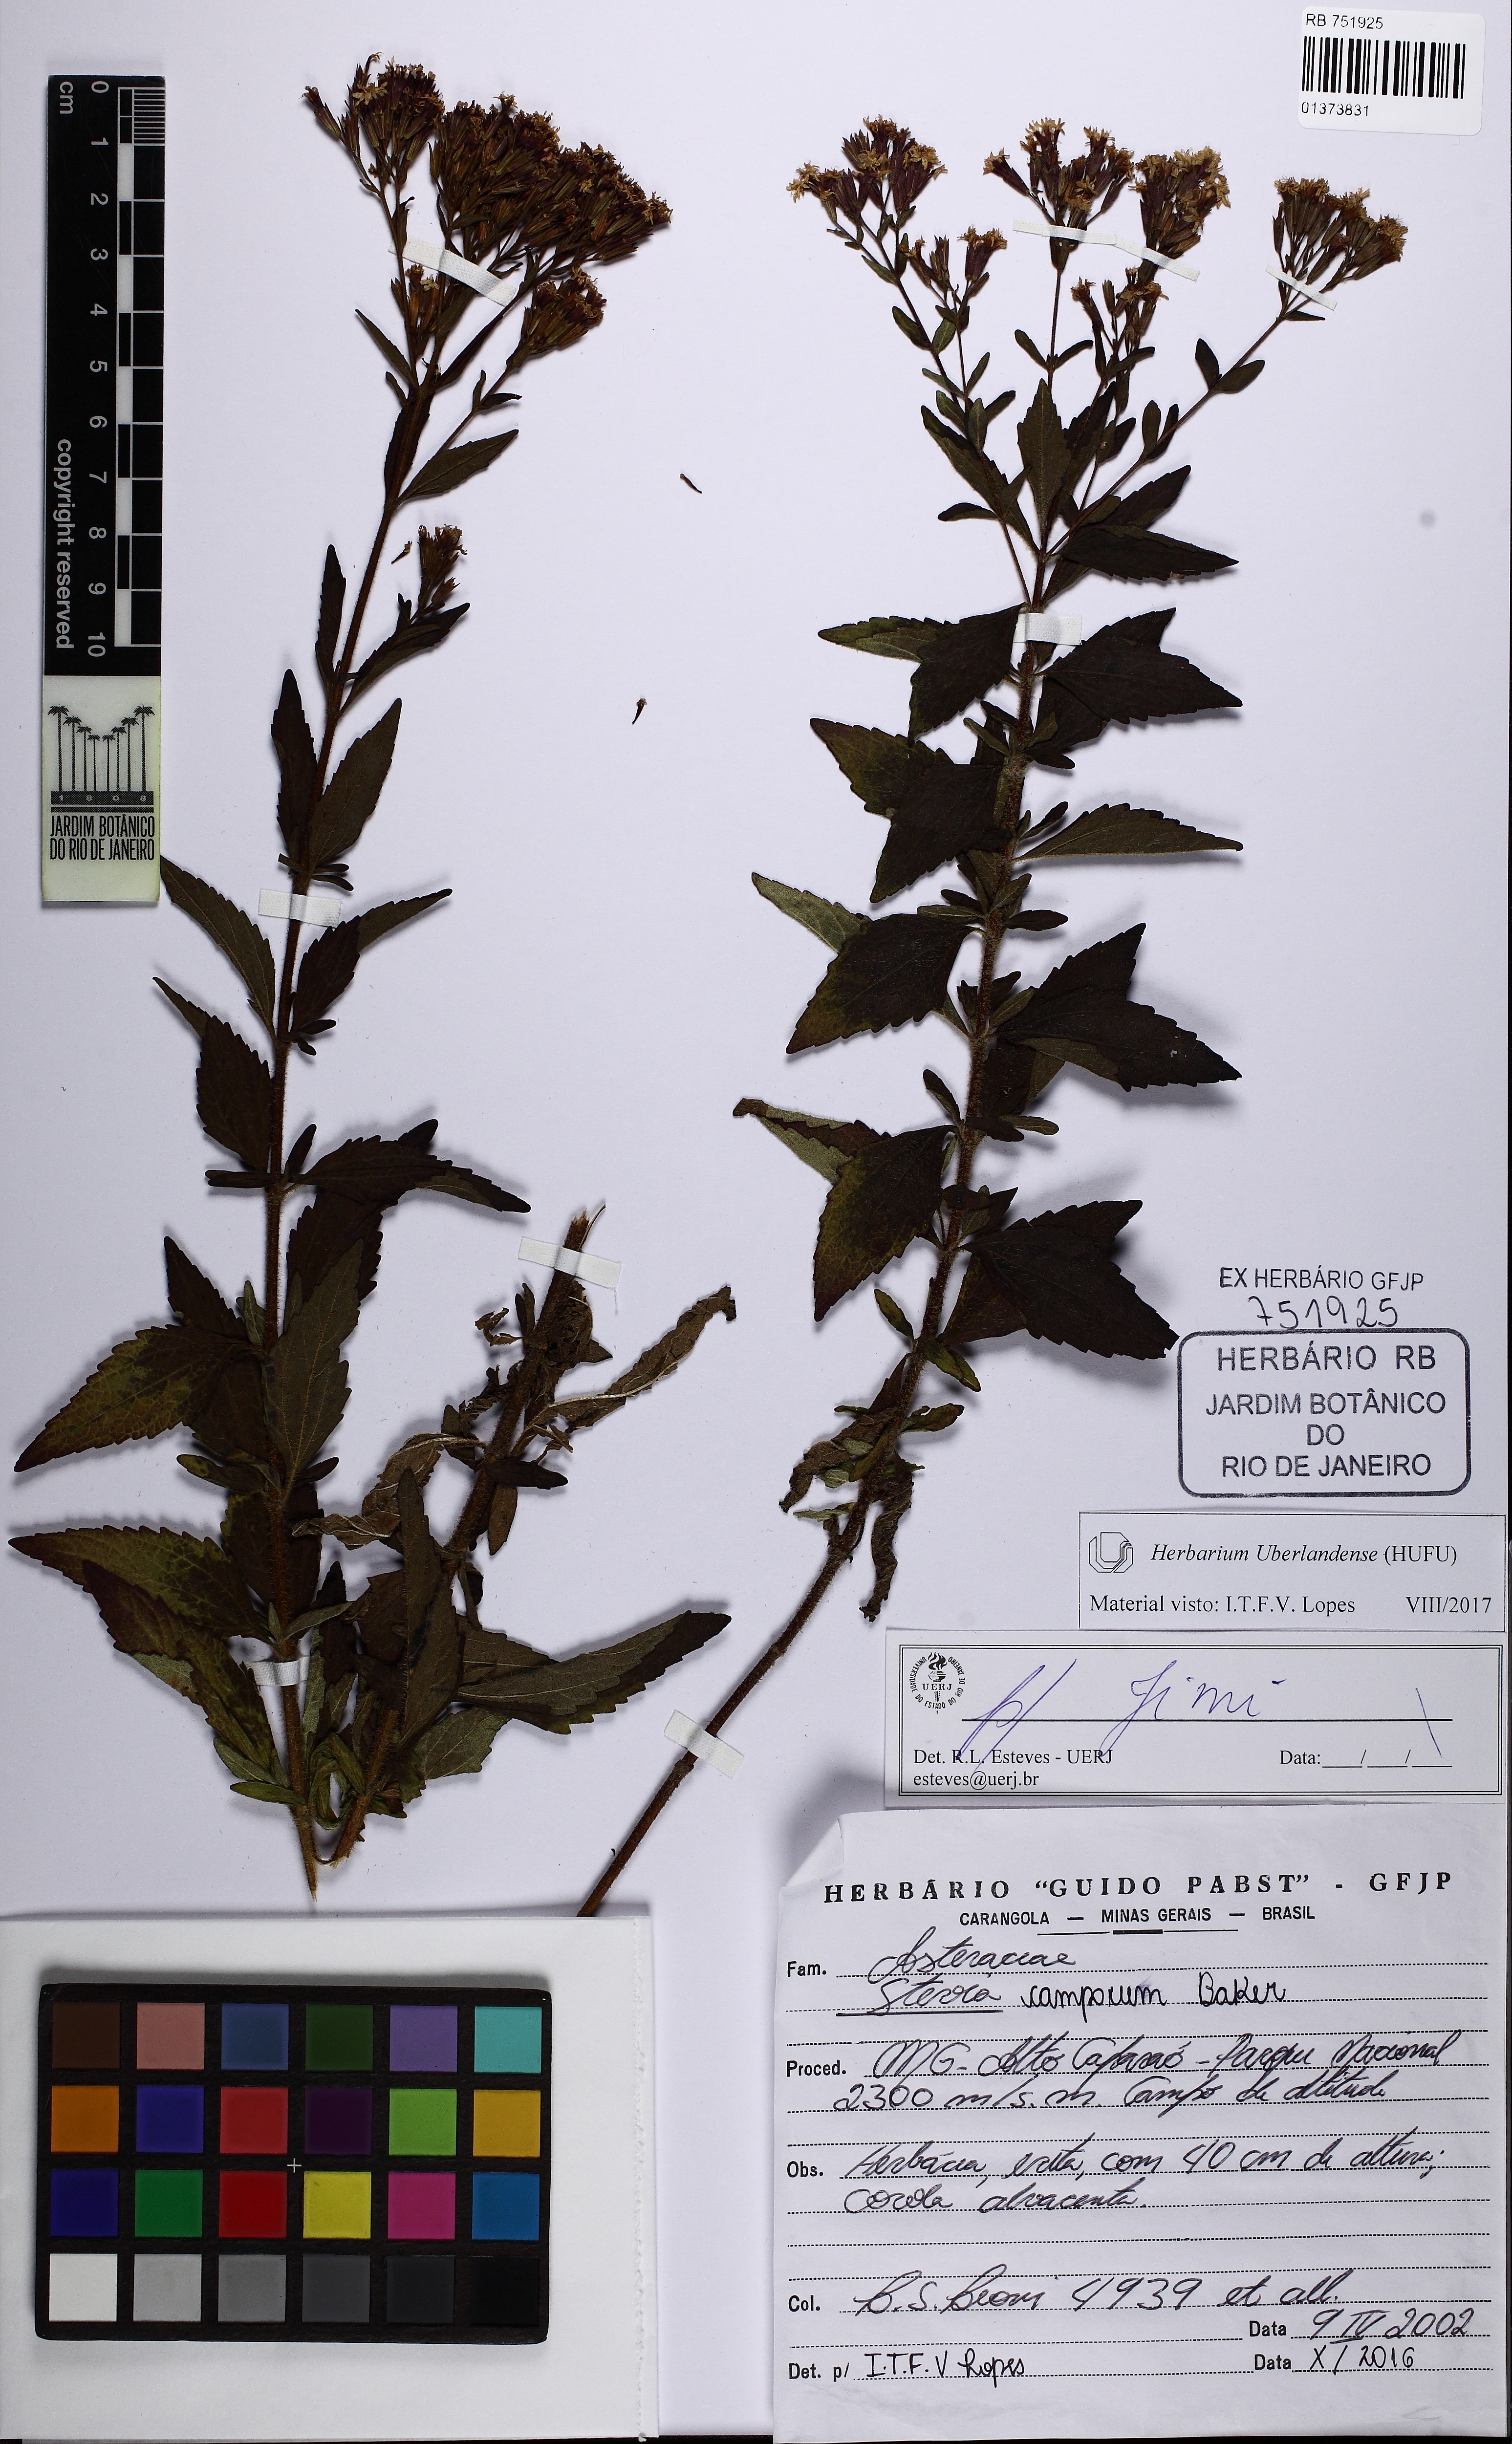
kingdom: Plantae
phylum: Tracheophyta
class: Magnoliopsida
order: Asterales
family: Asteraceae
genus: Stevia
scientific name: Stevia camporum
